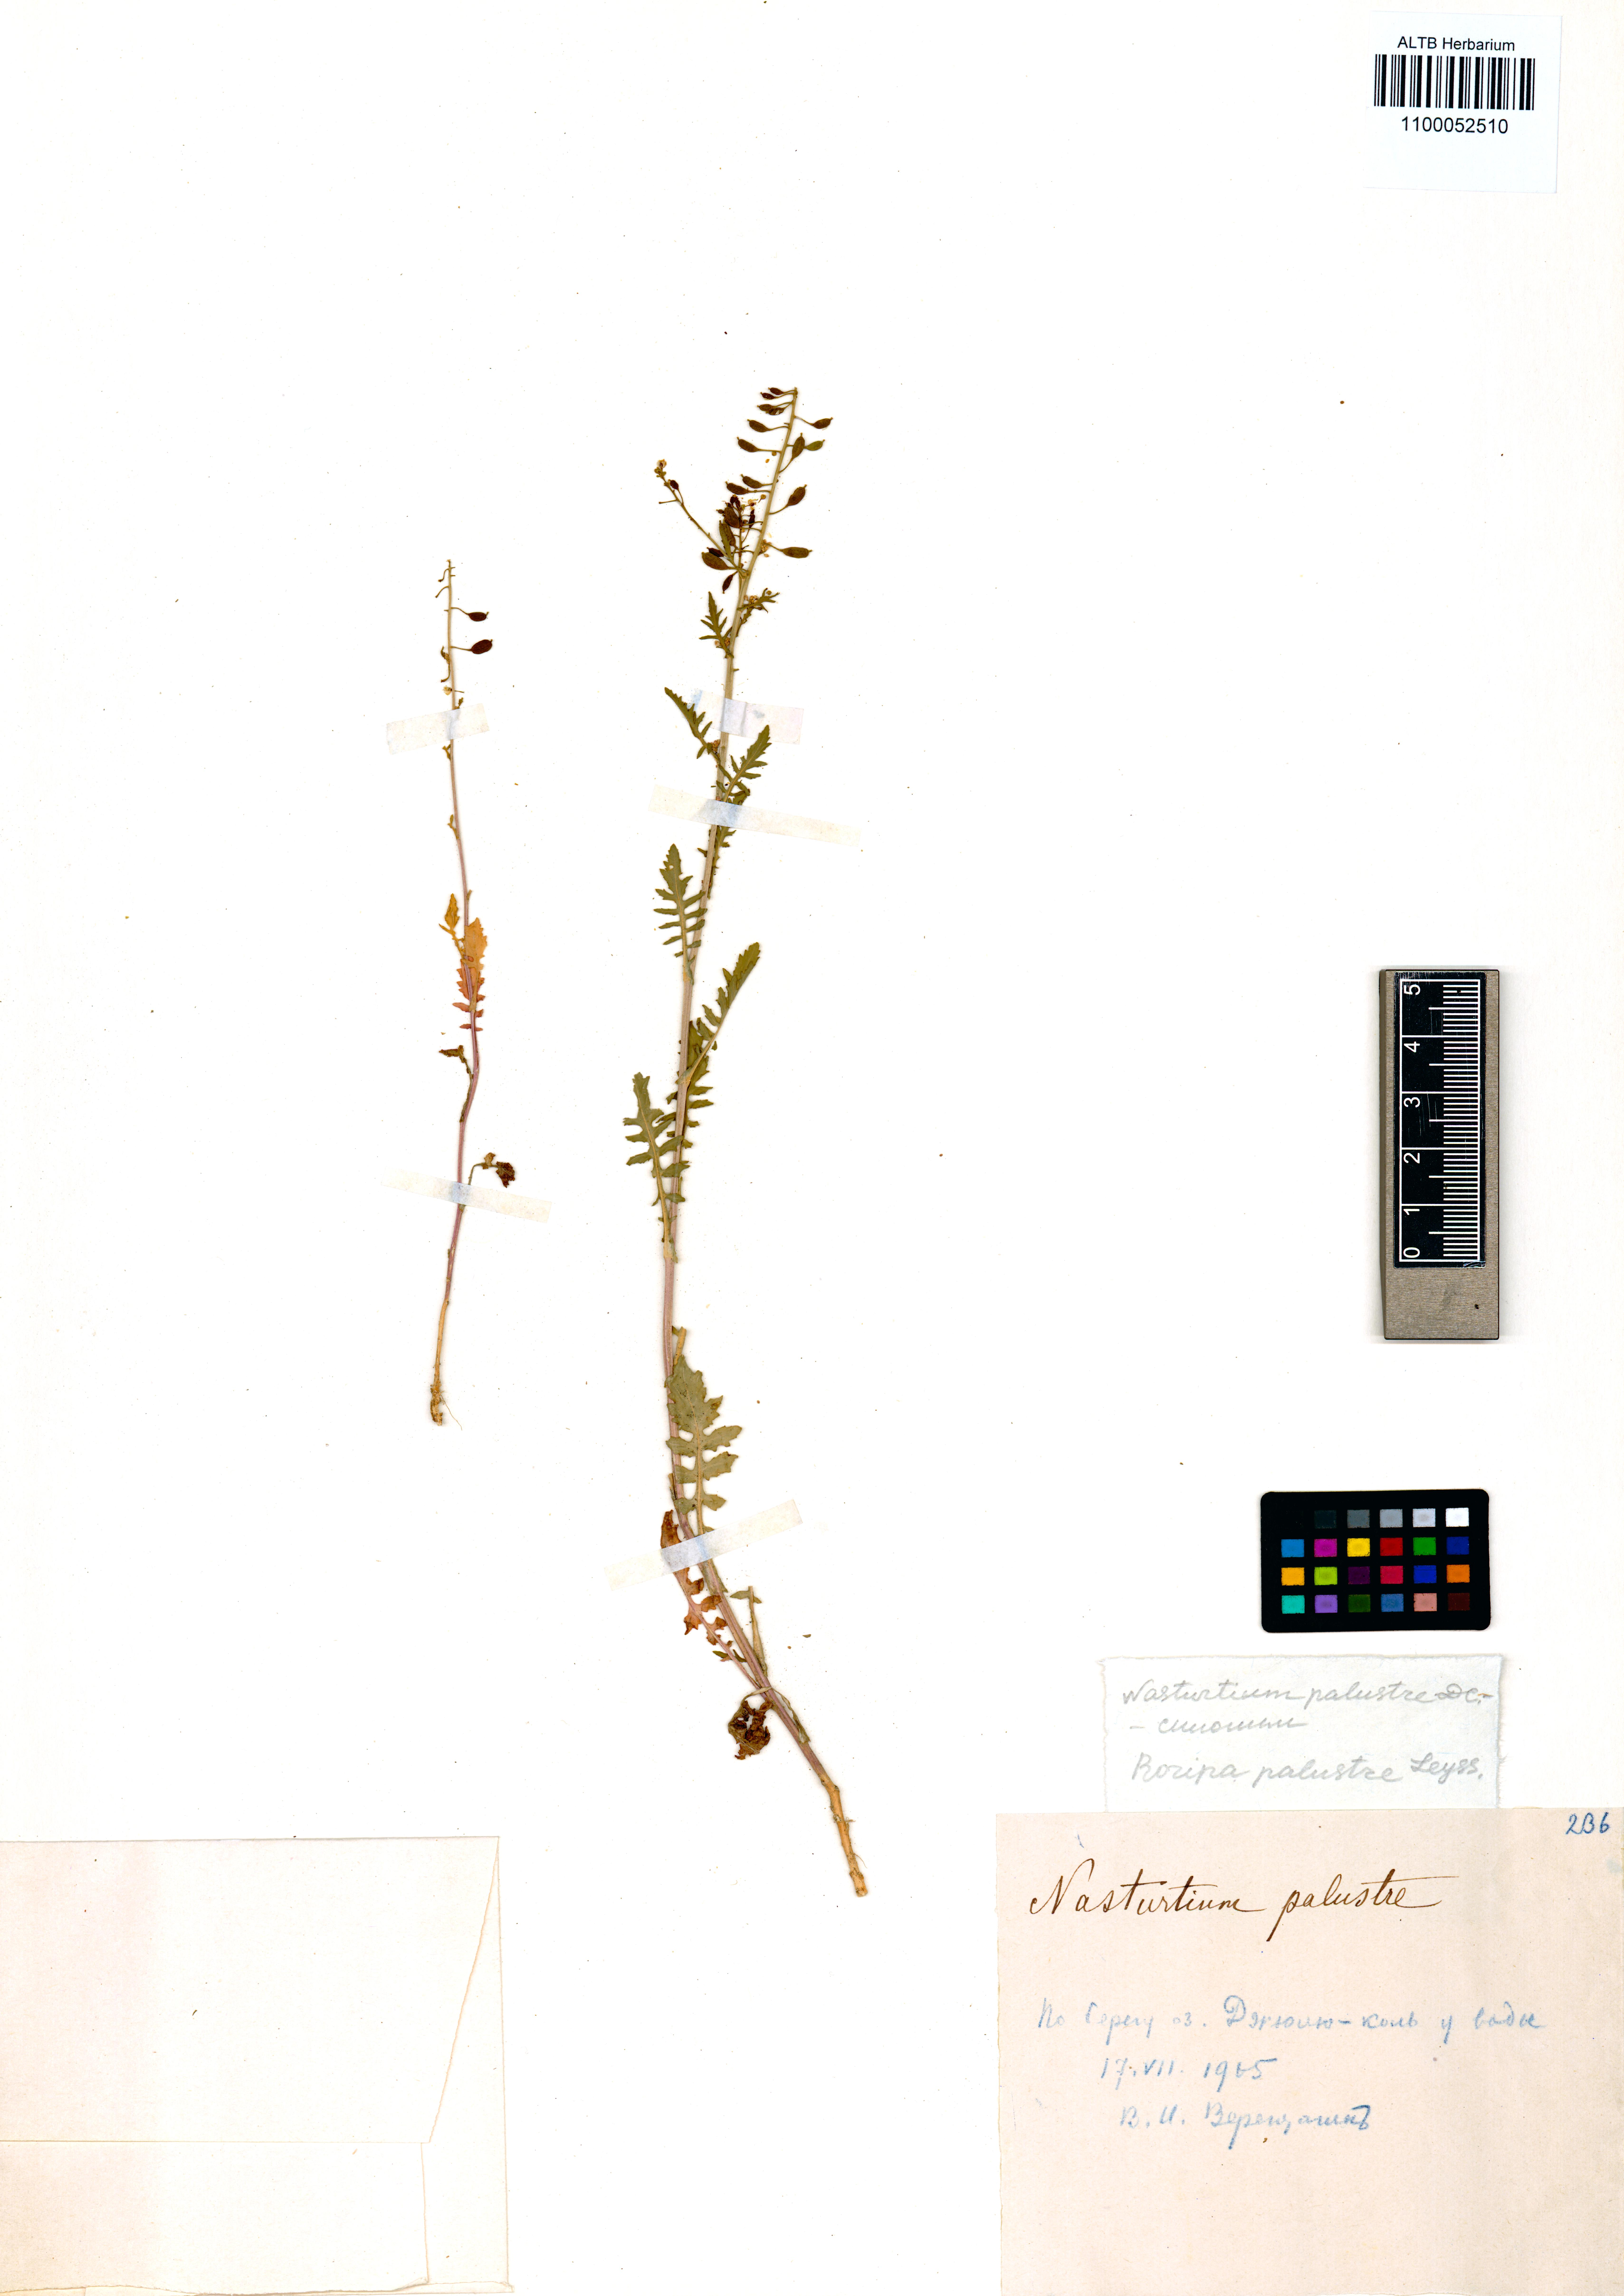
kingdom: Plantae
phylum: Tracheophyta
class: Magnoliopsida
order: Brassicales
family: Brassicaceae
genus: Rorippa
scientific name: Rorippa palustris
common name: Marsh yellow-cress
